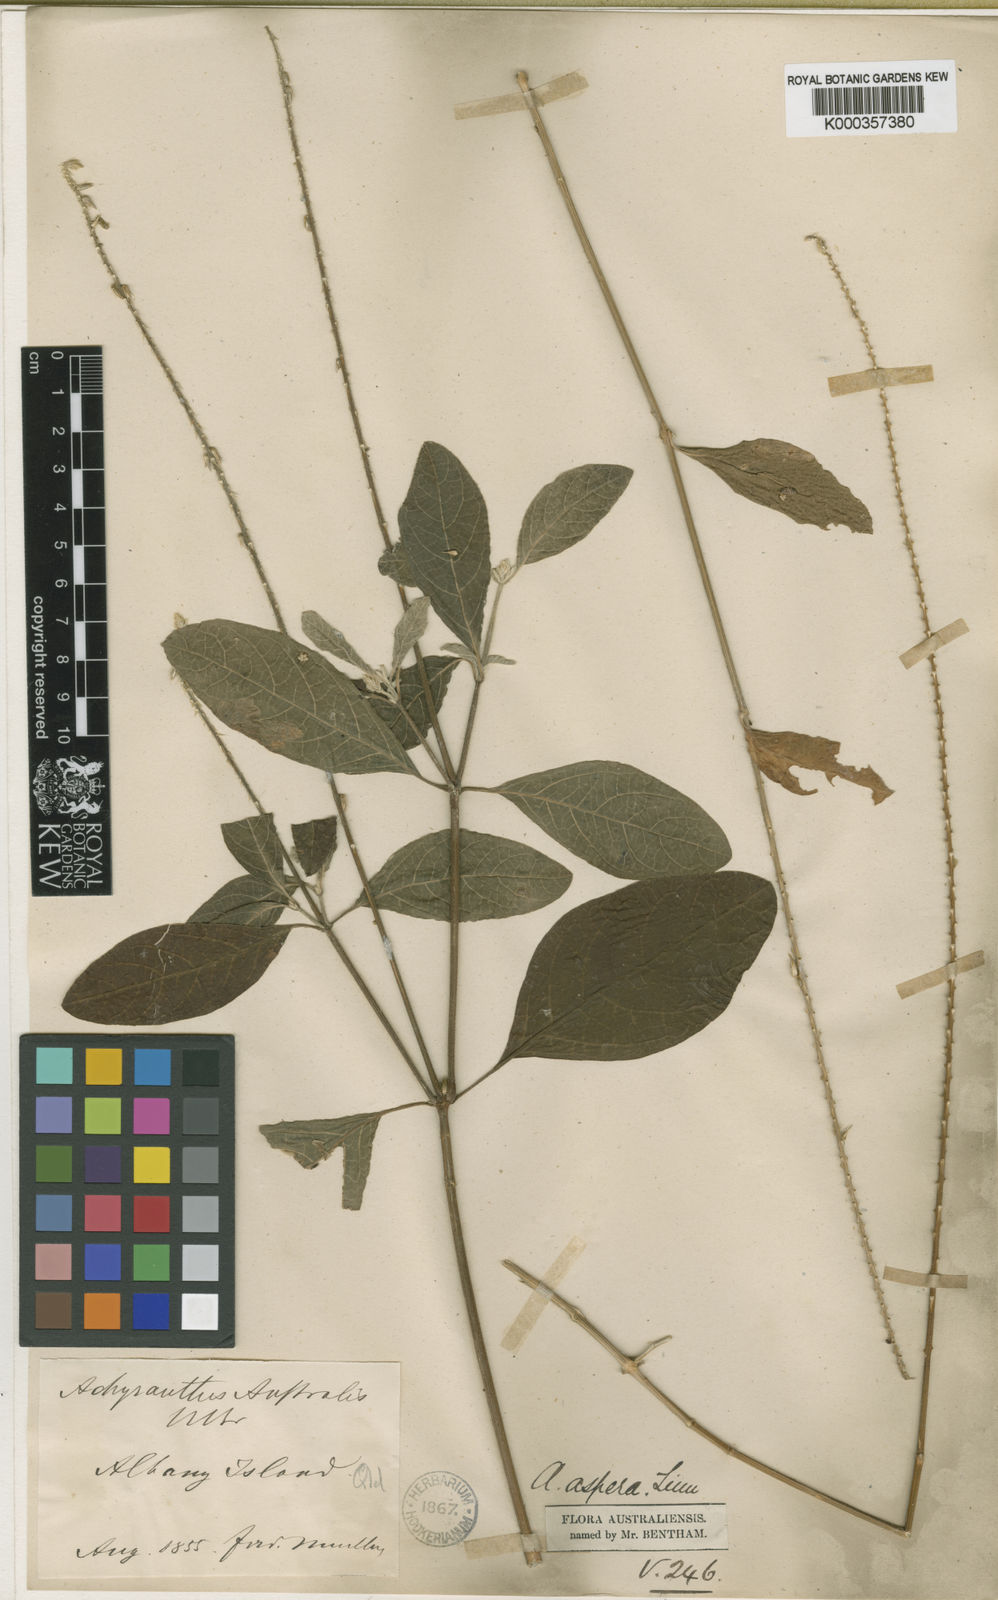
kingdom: Plantae
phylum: Tracheophyta
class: Magnoliopsida
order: Caryophyllales
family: Amaranthaceae
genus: Achyranthes
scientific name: Achyranthes aspera
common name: Devil's horsewhip
